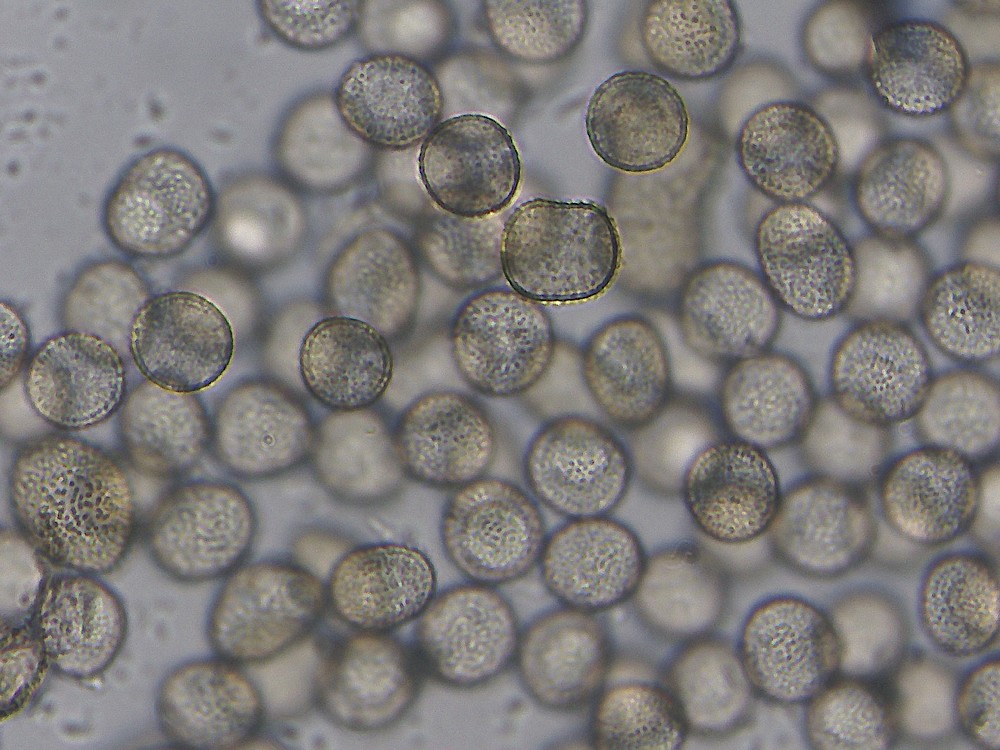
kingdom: Protozoa
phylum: Mycetozoa
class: Myxomycetes
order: Trichiales
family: Dianemataceae
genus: Calomyxa
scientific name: Calomyxa metallica
